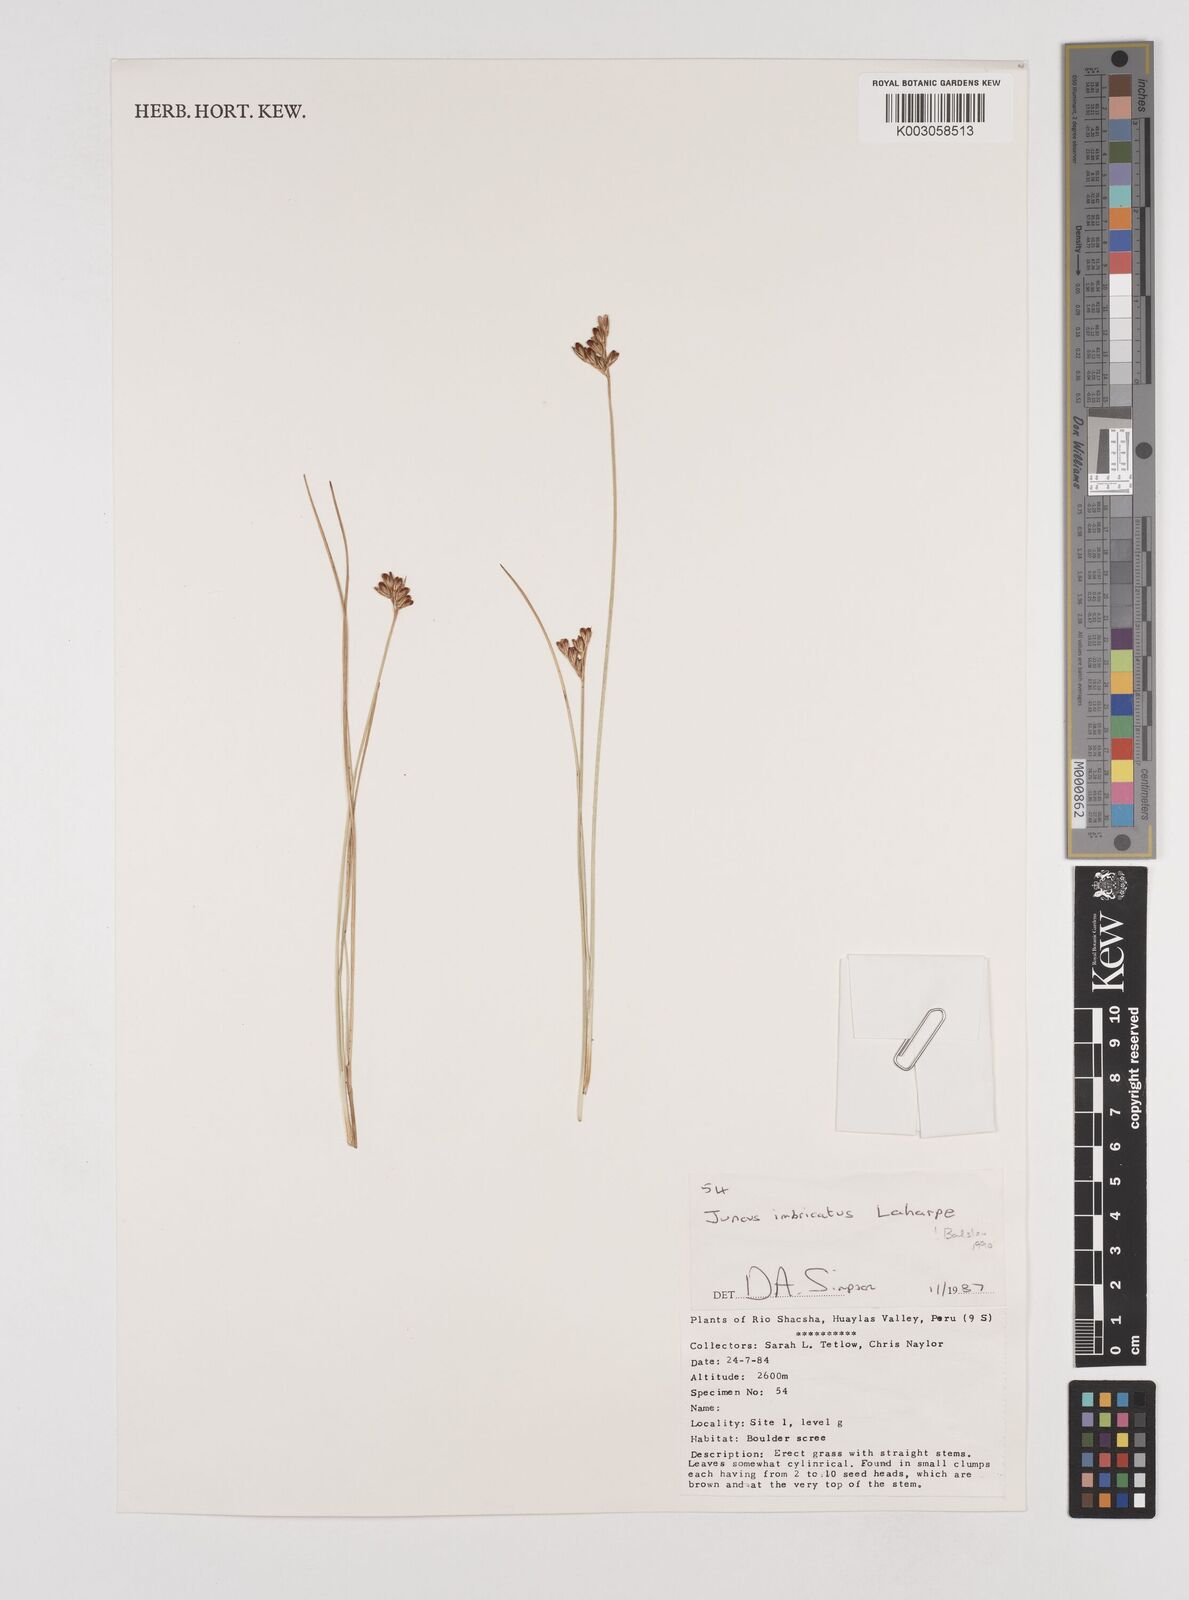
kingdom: Plantae
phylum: Tracheophyta
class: Liliopsida
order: Poales
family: Juncaceae
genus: Juncus
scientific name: Juncus imbricatus
